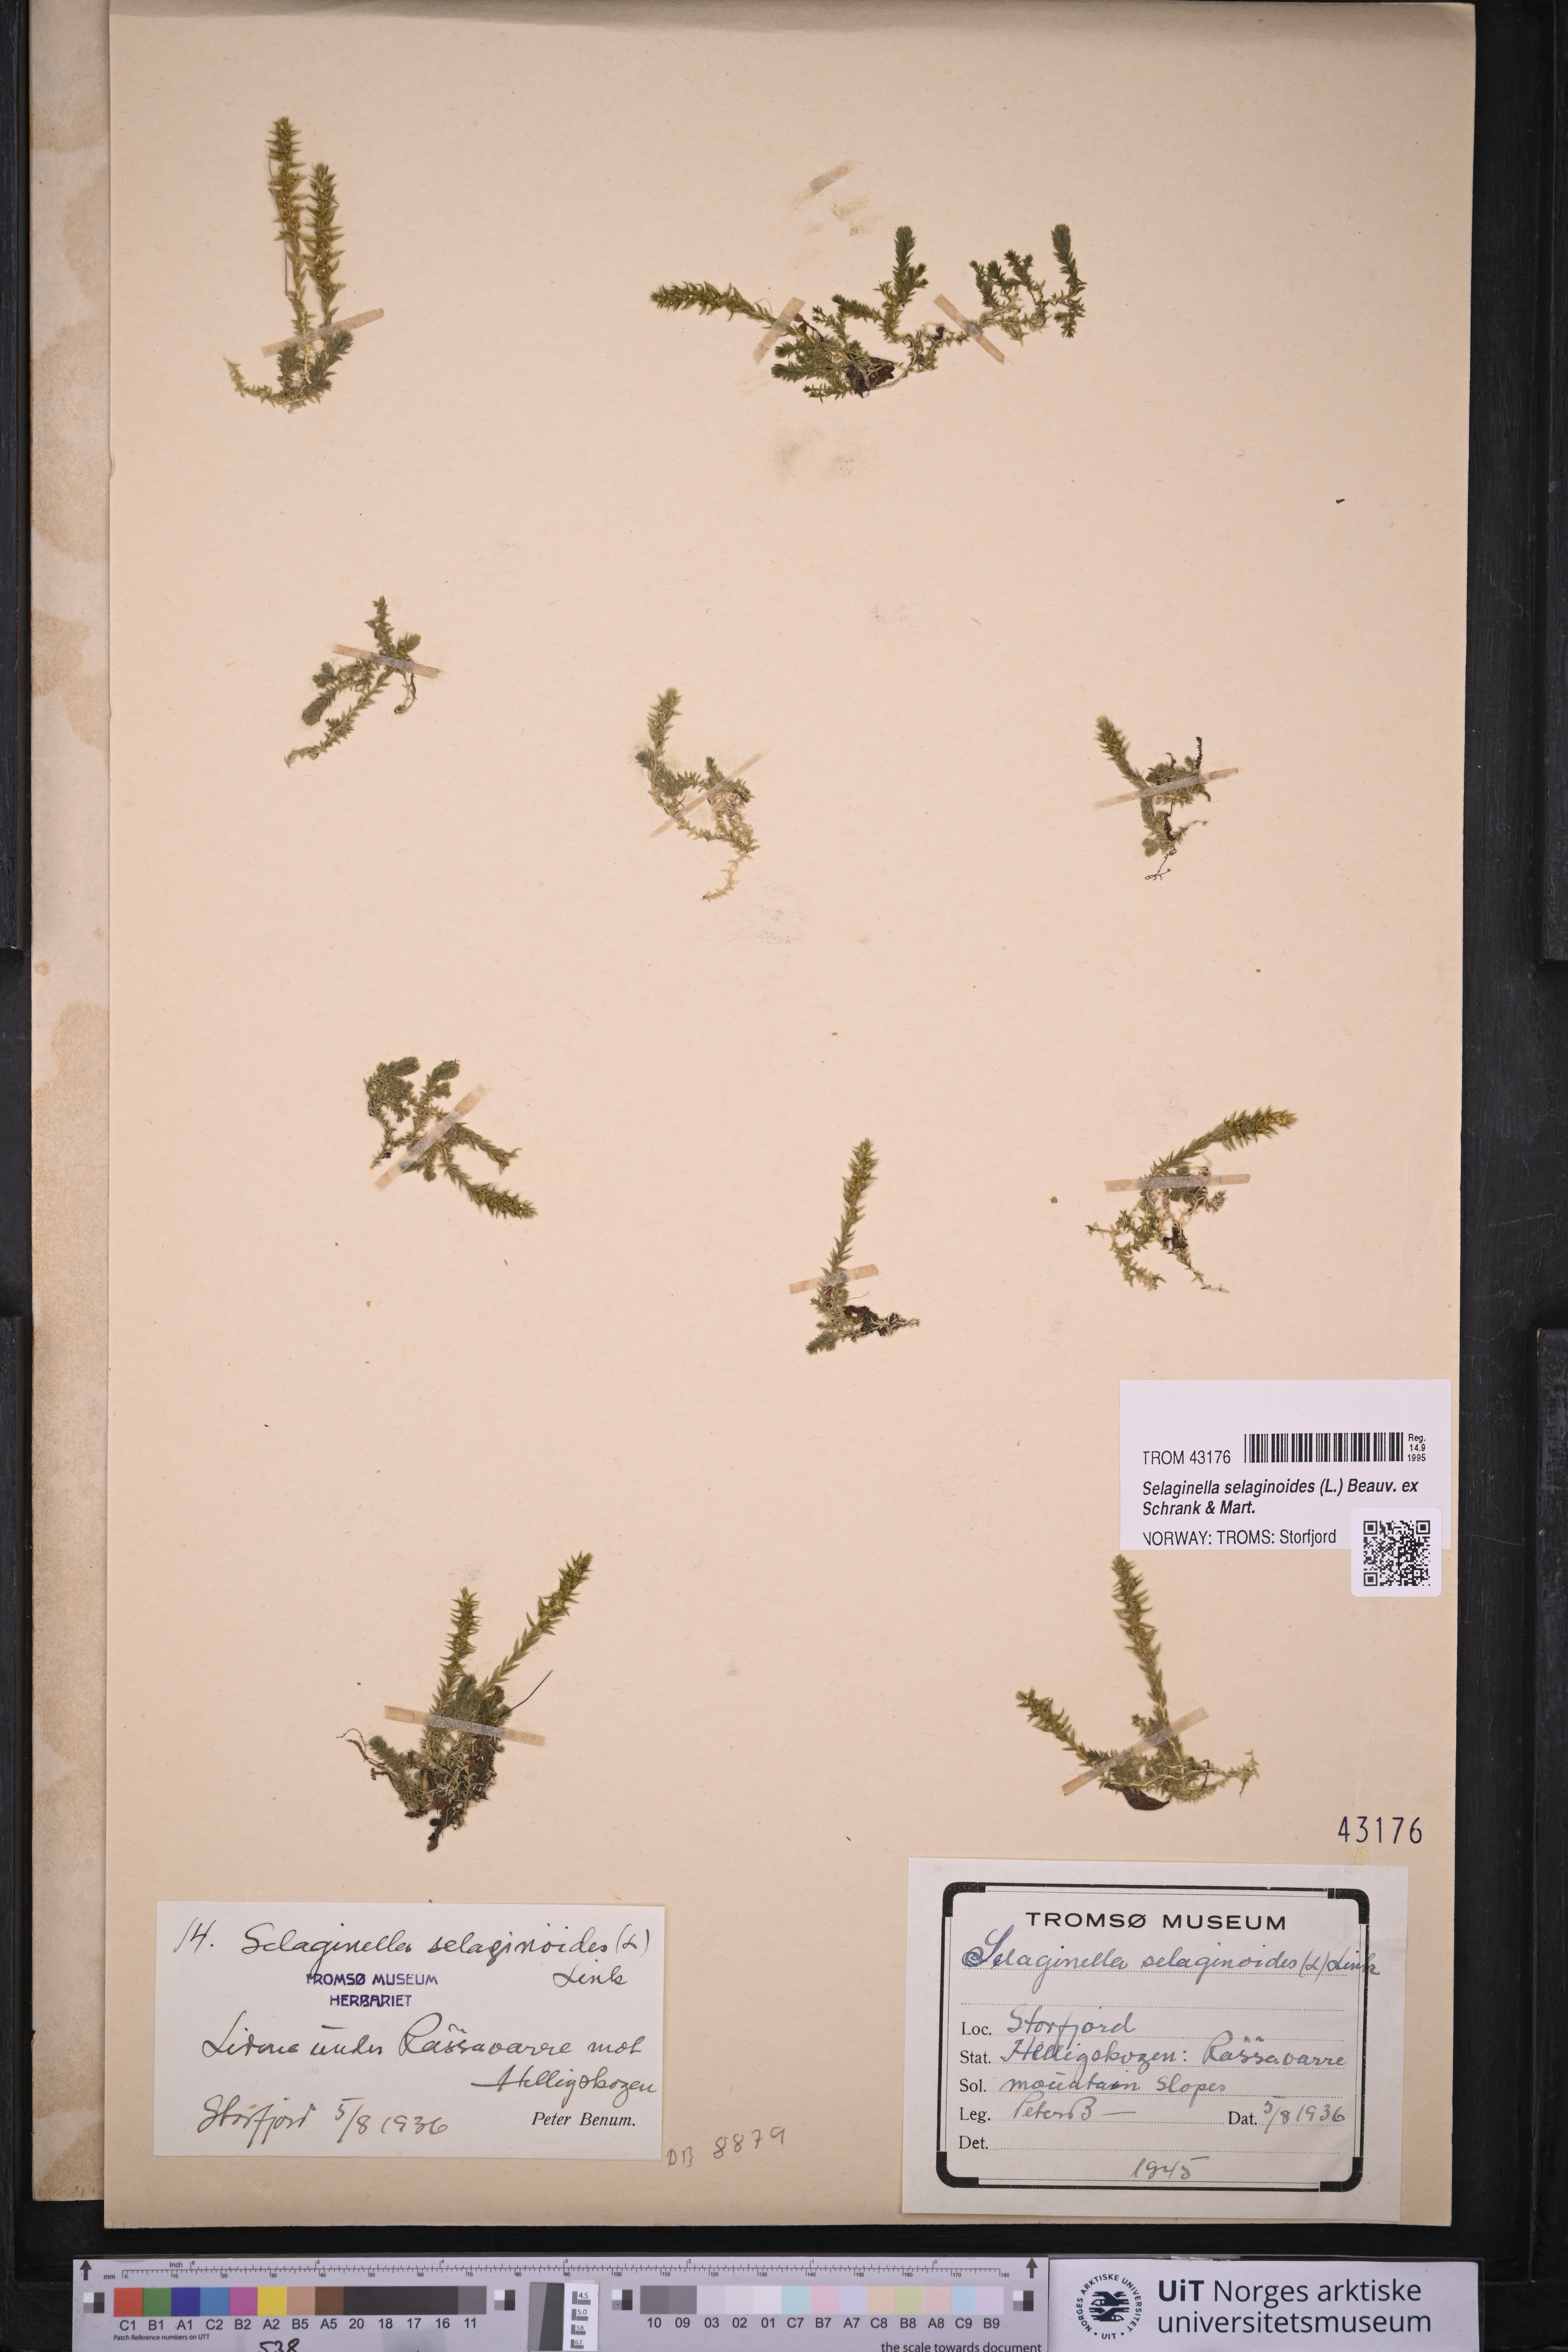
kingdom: Plantae
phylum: Tracheophyta
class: Lycopodiopsida
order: Selaginellales
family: Selaginellaceae
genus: Selaginella
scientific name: Selaginella selaginoides
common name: Prickly mountain-moss
